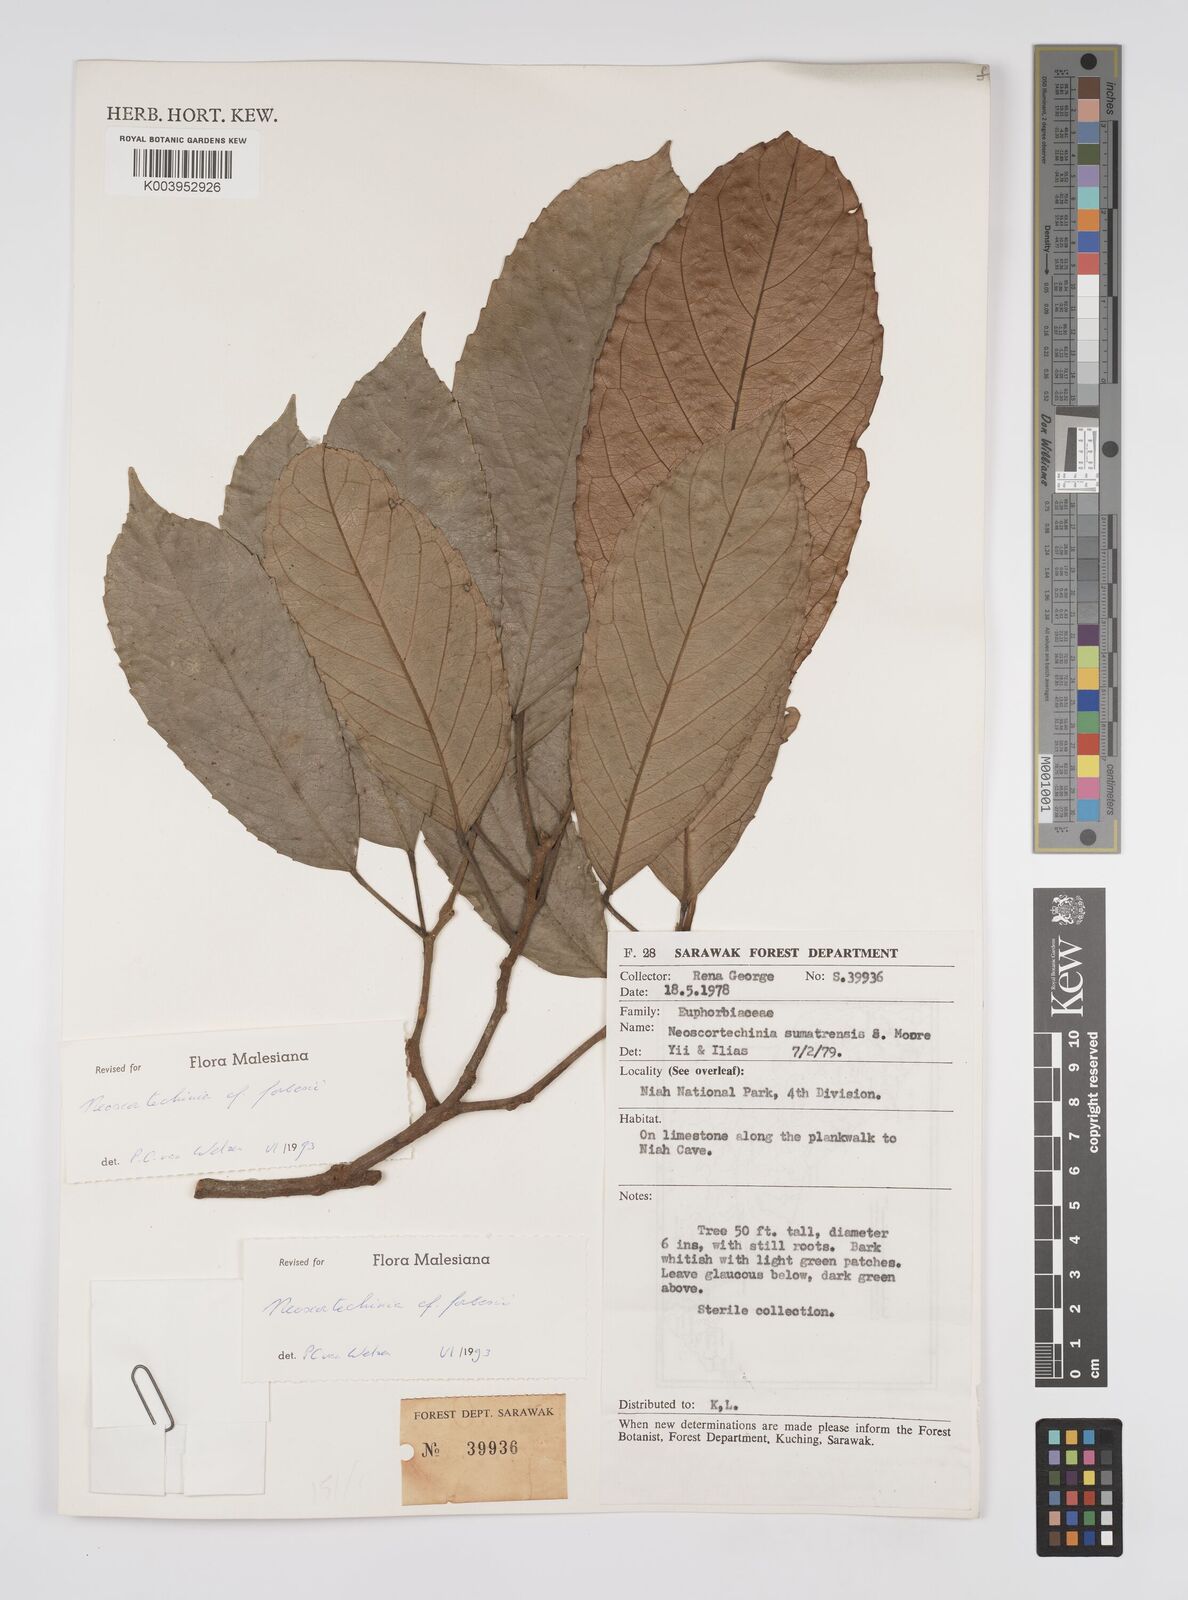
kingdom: Plantae
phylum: Tracheophyta
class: Magnoliopsida
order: Malpighiales
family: Euphorbiaceae
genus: Neoscortechinia
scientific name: Neoscortechinia philippinensis
